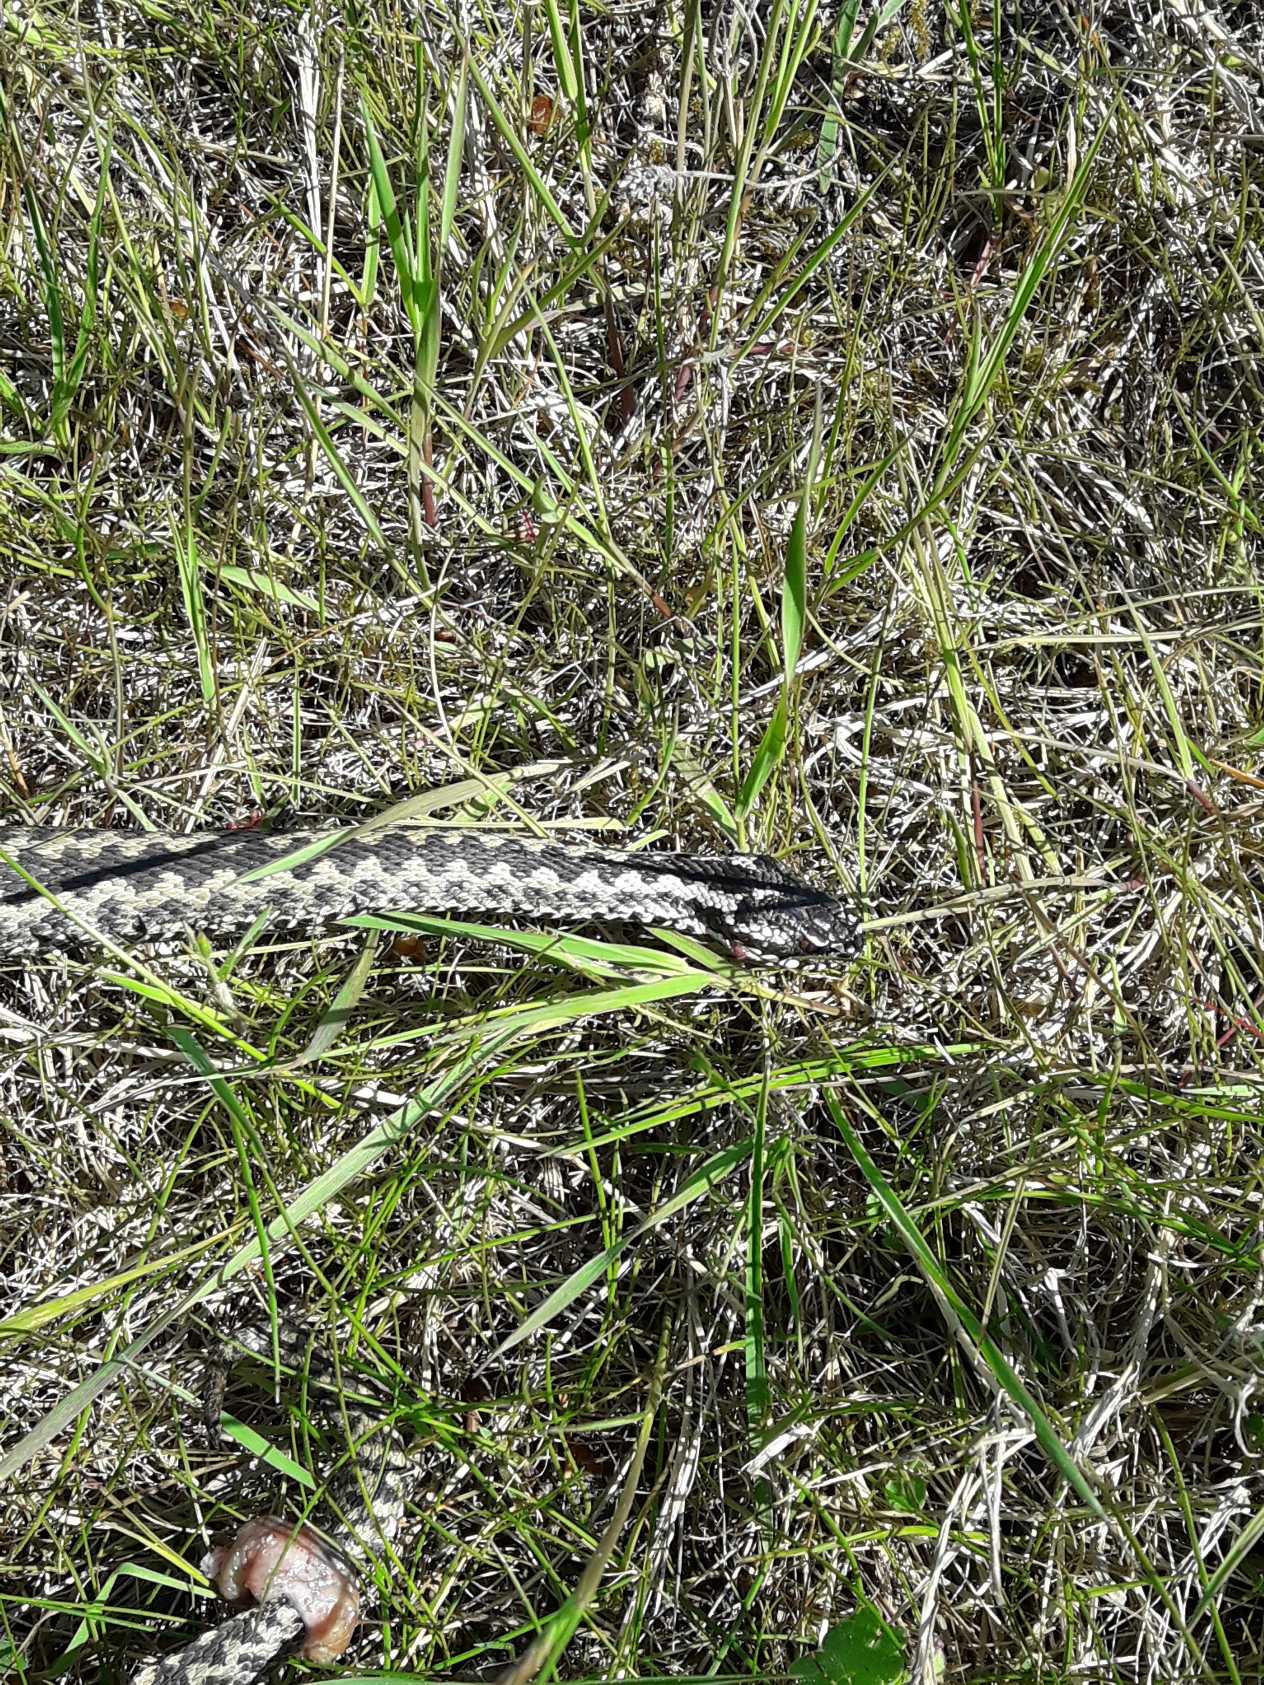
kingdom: Animalia
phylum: Chordata
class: Squamata
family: Viperidae
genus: Vipera
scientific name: Vipera berus
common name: Hugorm
